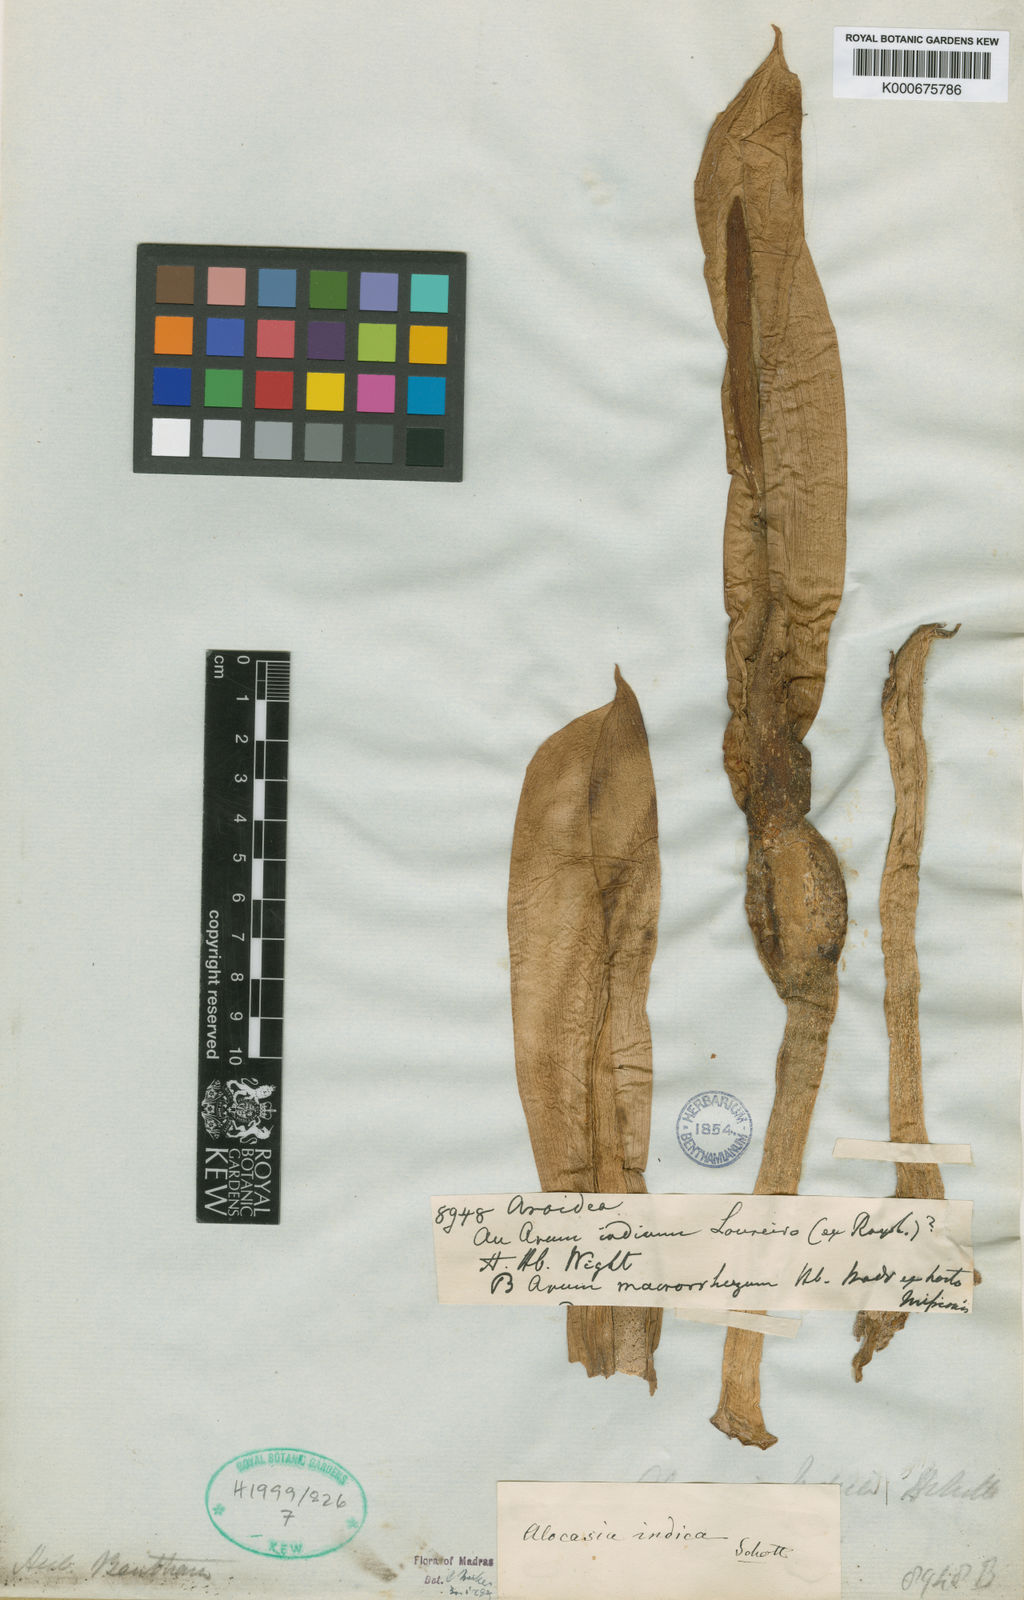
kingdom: Plantae
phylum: Tracheophyta
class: Liliopsida
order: Alismatales
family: Araceae
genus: Alocasia
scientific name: Alocasia
